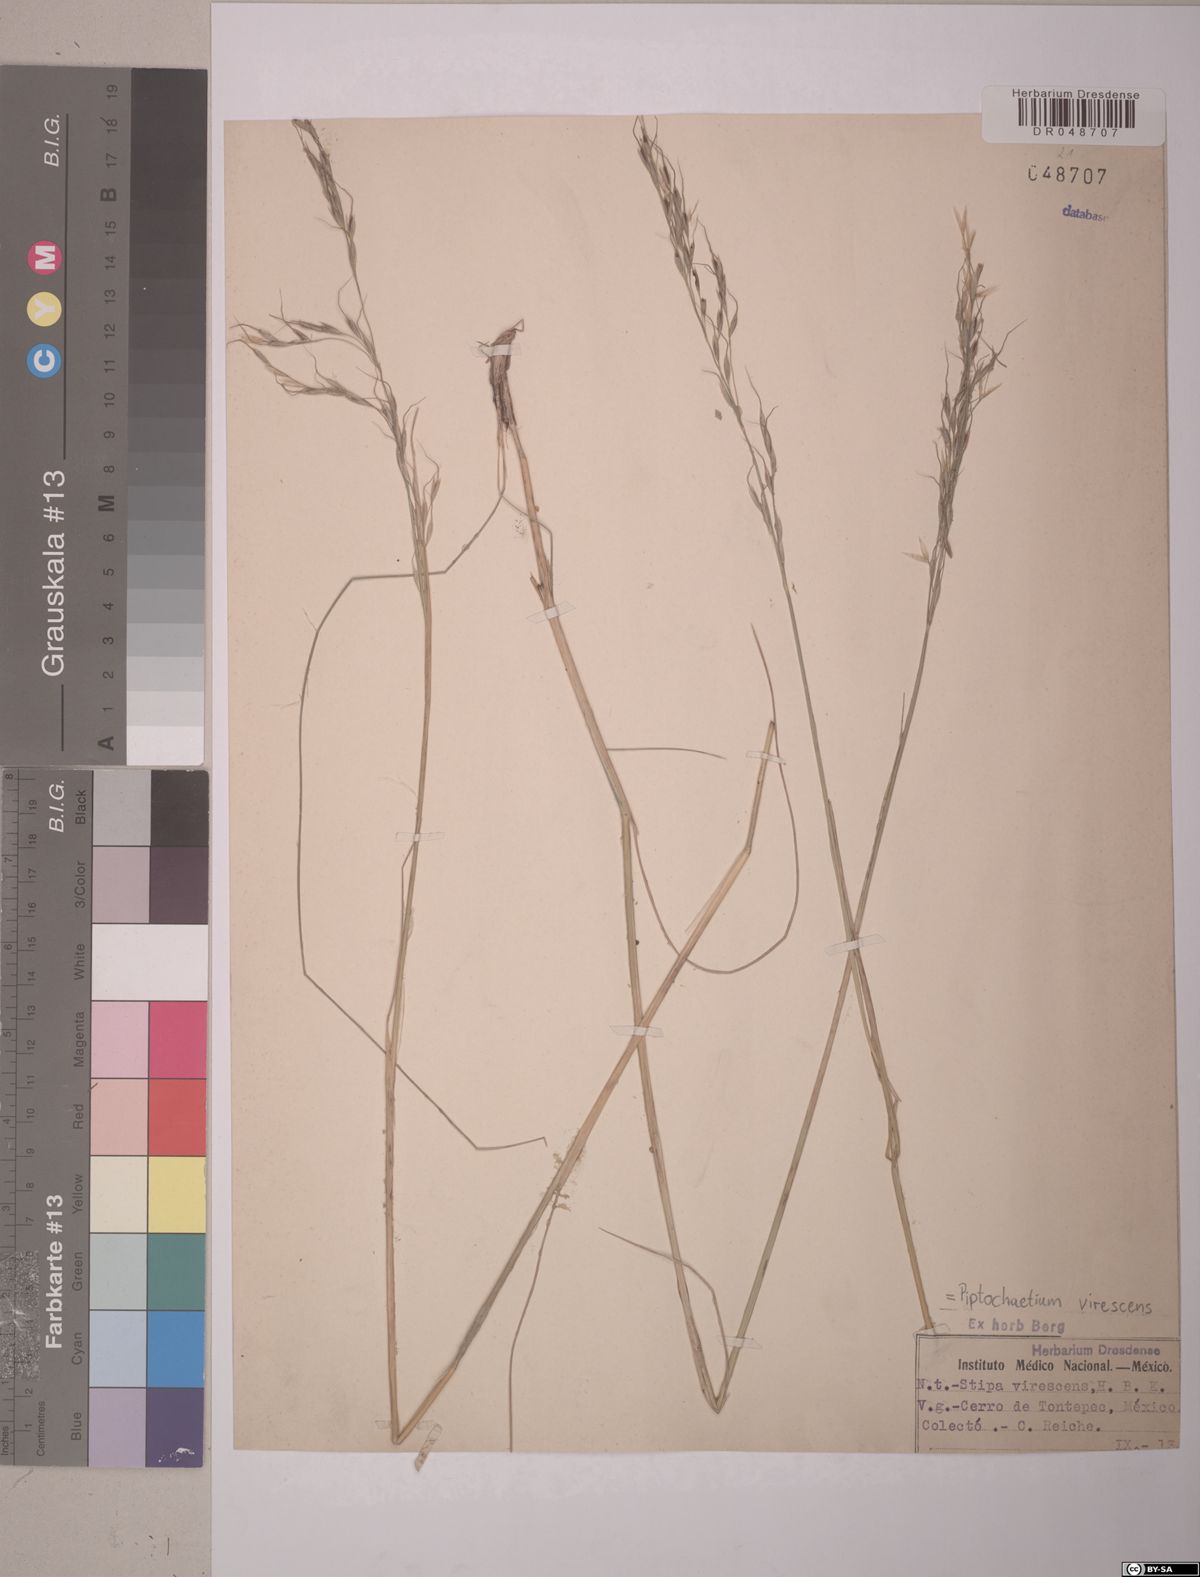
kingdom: Plantae
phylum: Tracheophyta
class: Liliopsida
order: Poales
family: Poaceae
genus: Piptochaetium
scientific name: Piptochaetium virescens
